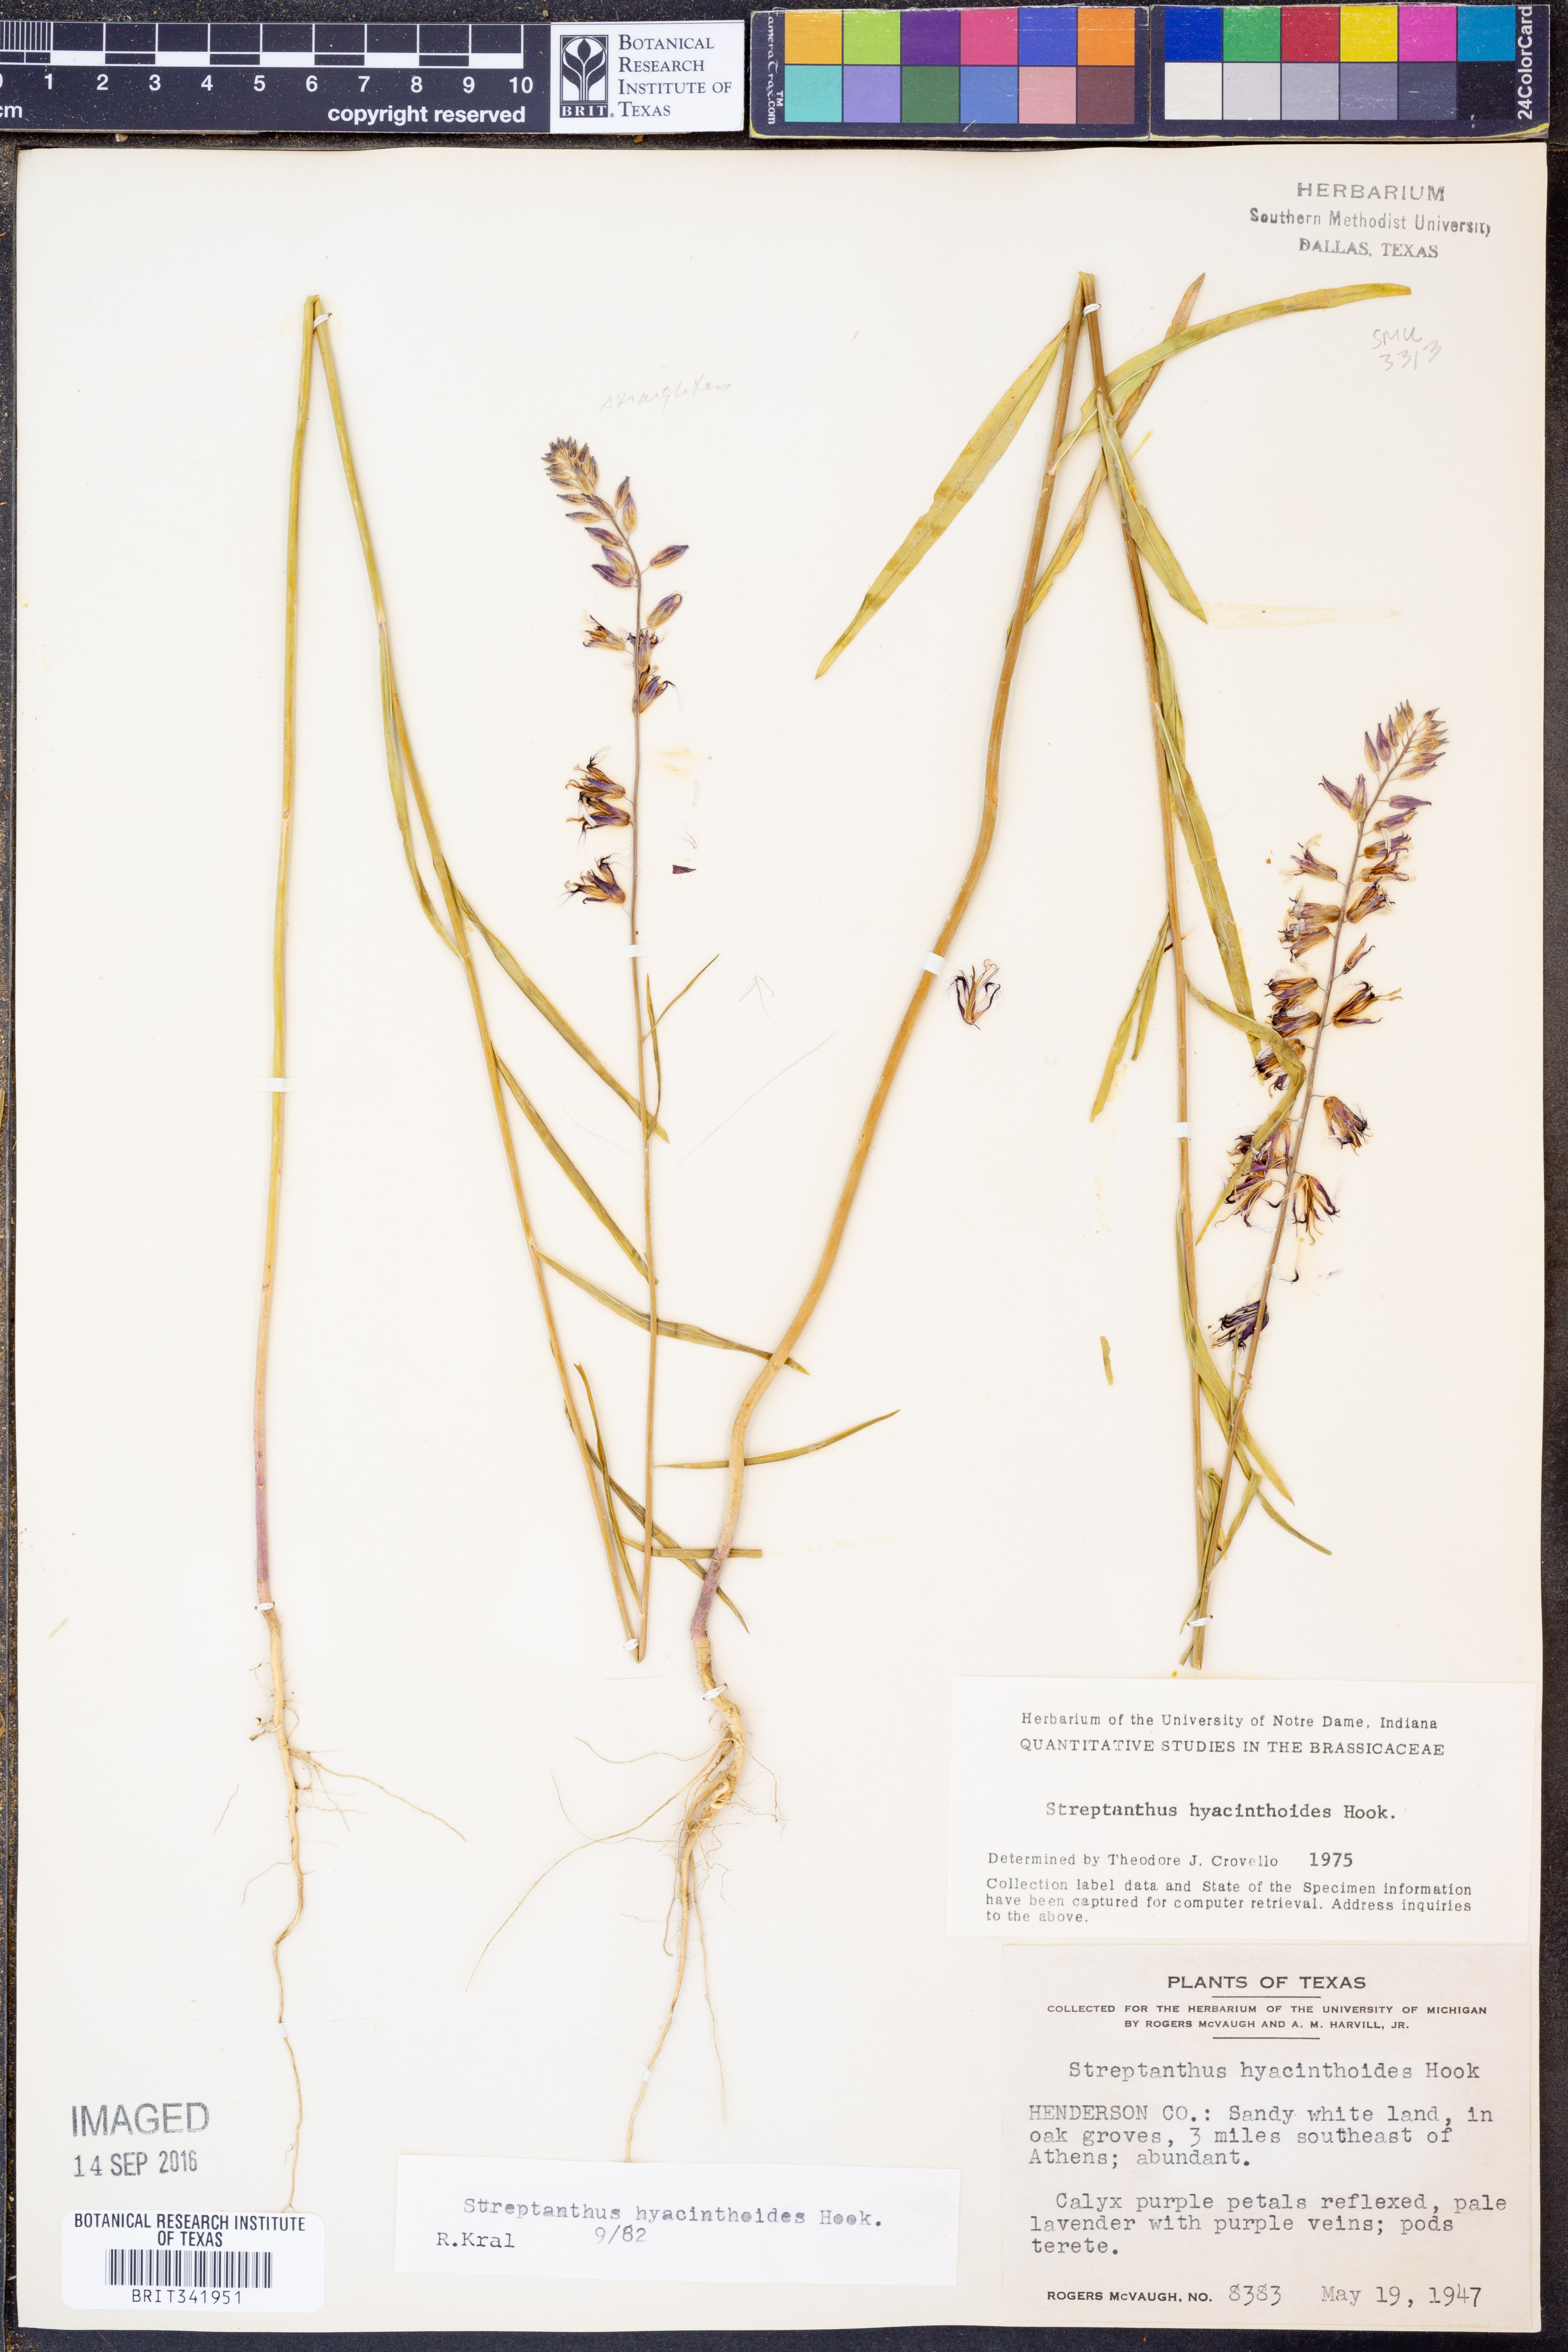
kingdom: Plantae
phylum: Tracheophyta
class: Magnoliopsida
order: Brassicales
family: Brassicaceae
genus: Streptanthus
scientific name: Streptanthus hyacinthoides
